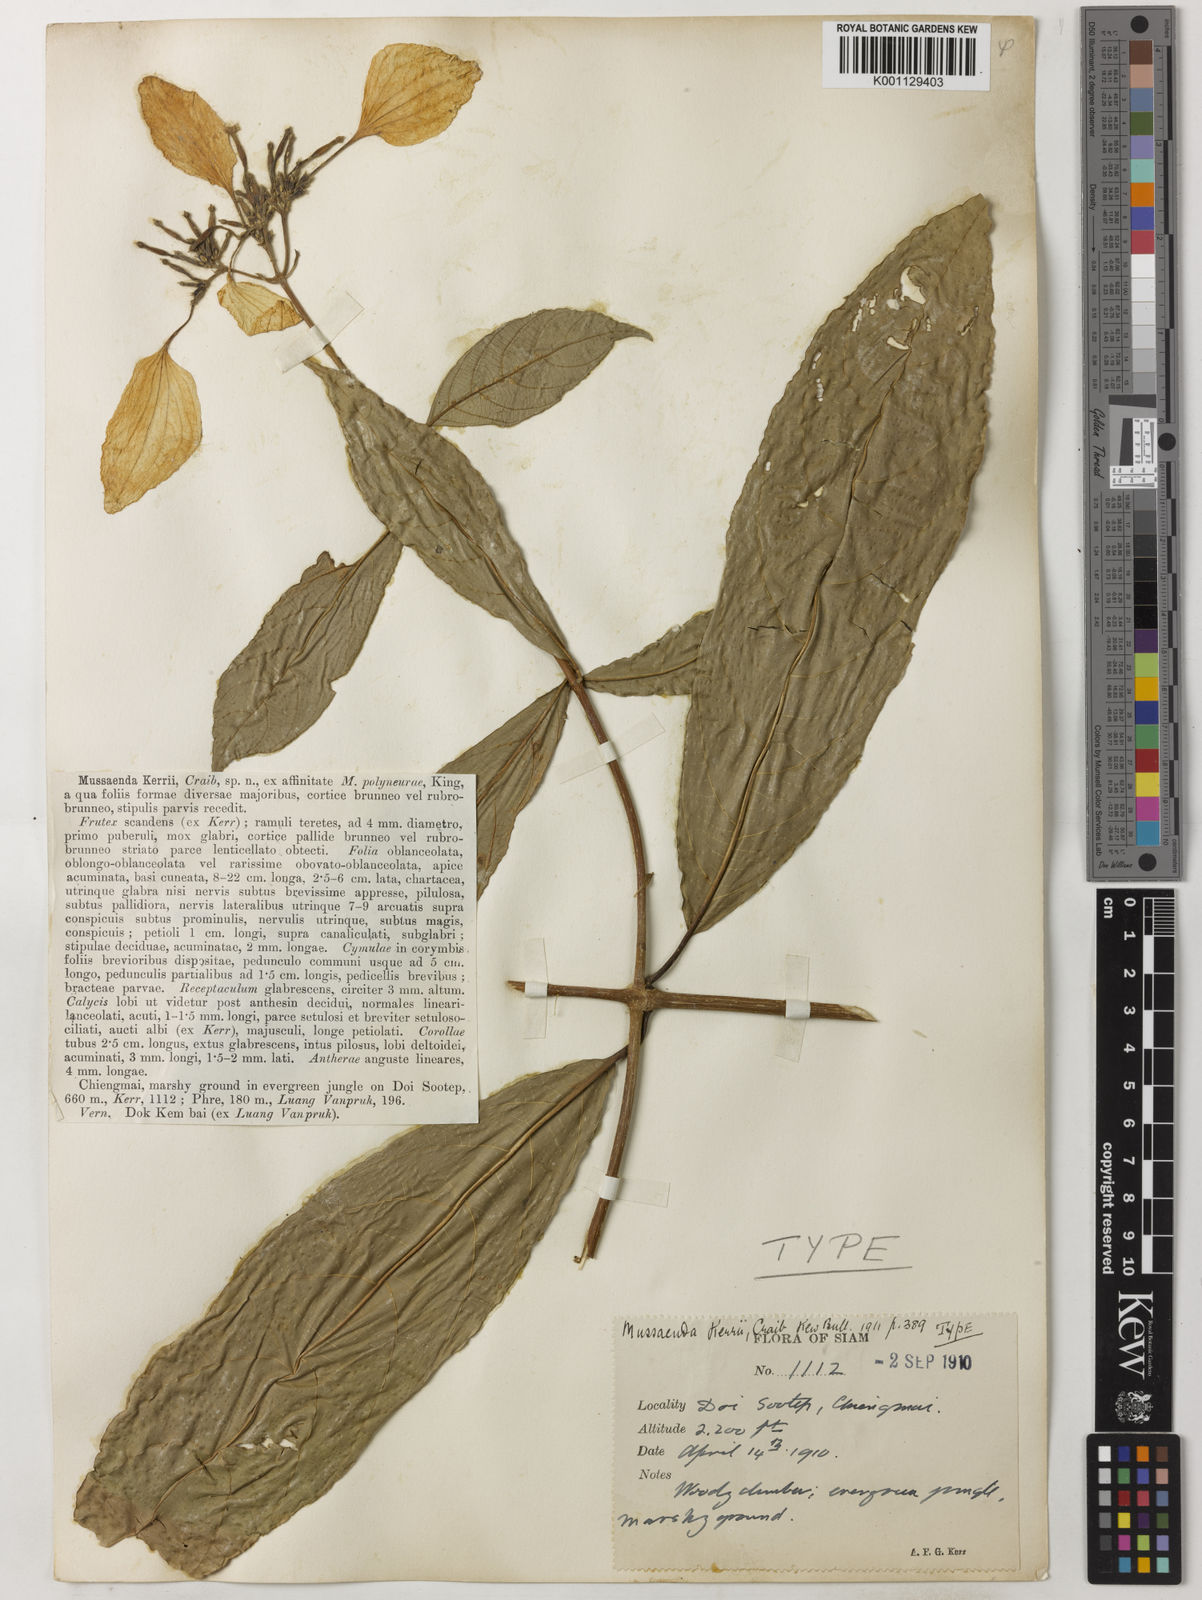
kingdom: Plantae
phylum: Tracheophyta
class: Magnoliopsida
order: Gentianales
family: Rubiaceae
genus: Mussaenda
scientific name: Mussaenda kerrii
